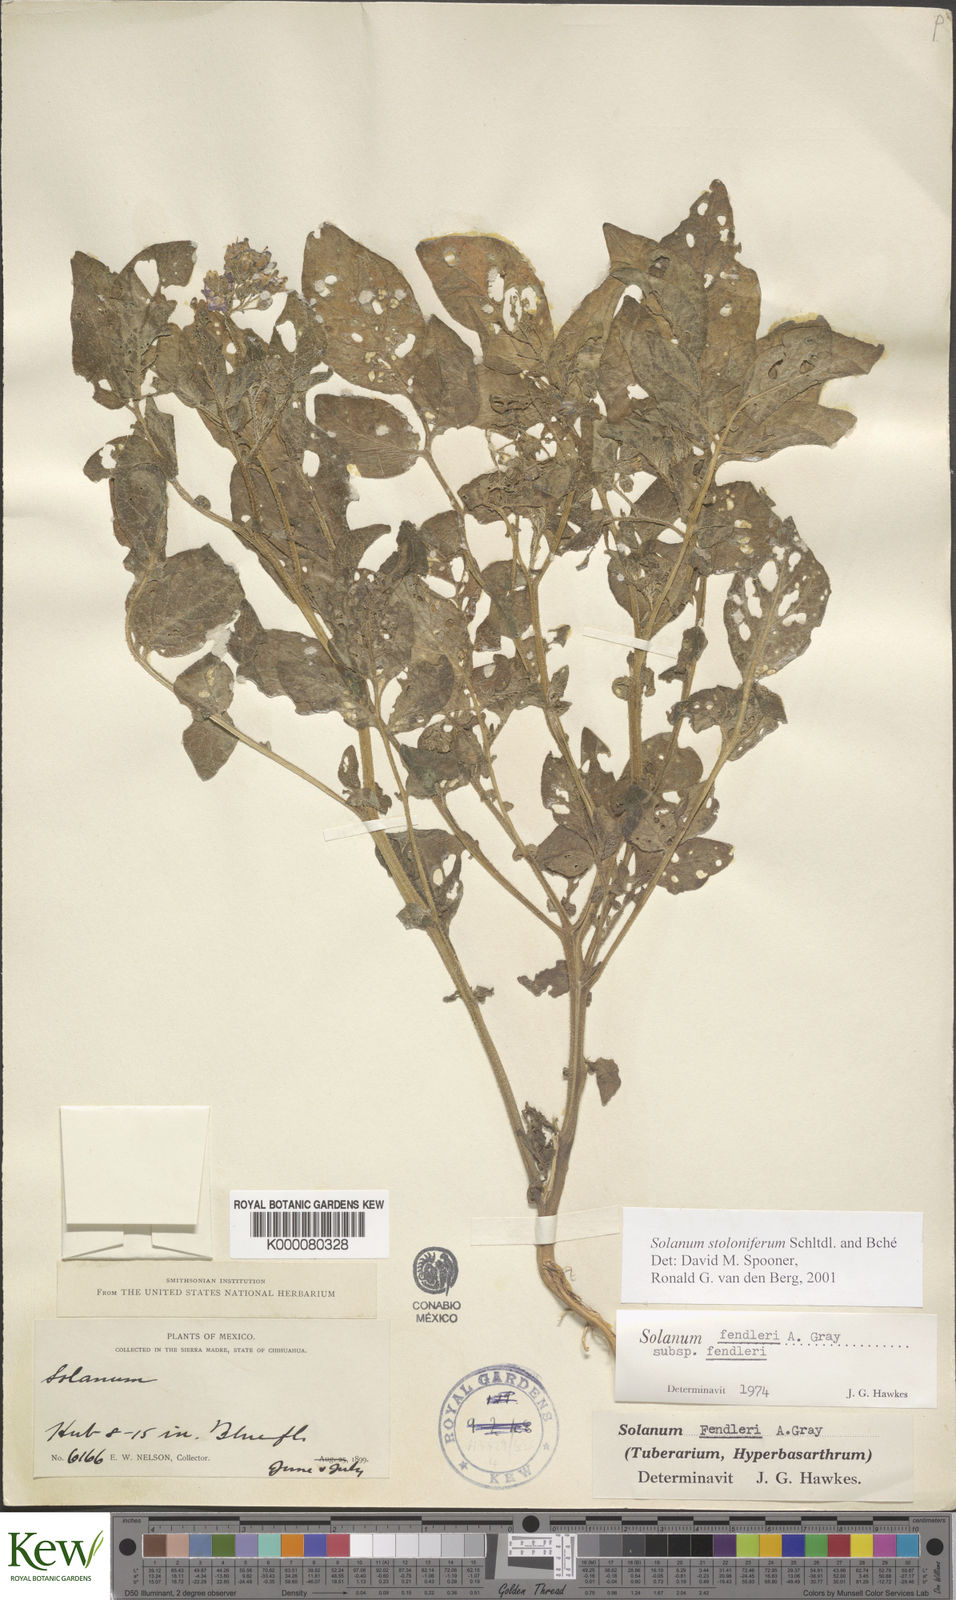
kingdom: Plantae
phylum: Tracheophyta
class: Magnoliopsida
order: Solanales
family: Solanaceae
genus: Solanum
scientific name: Solanum stoloniferum
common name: Fendler's nighshade
